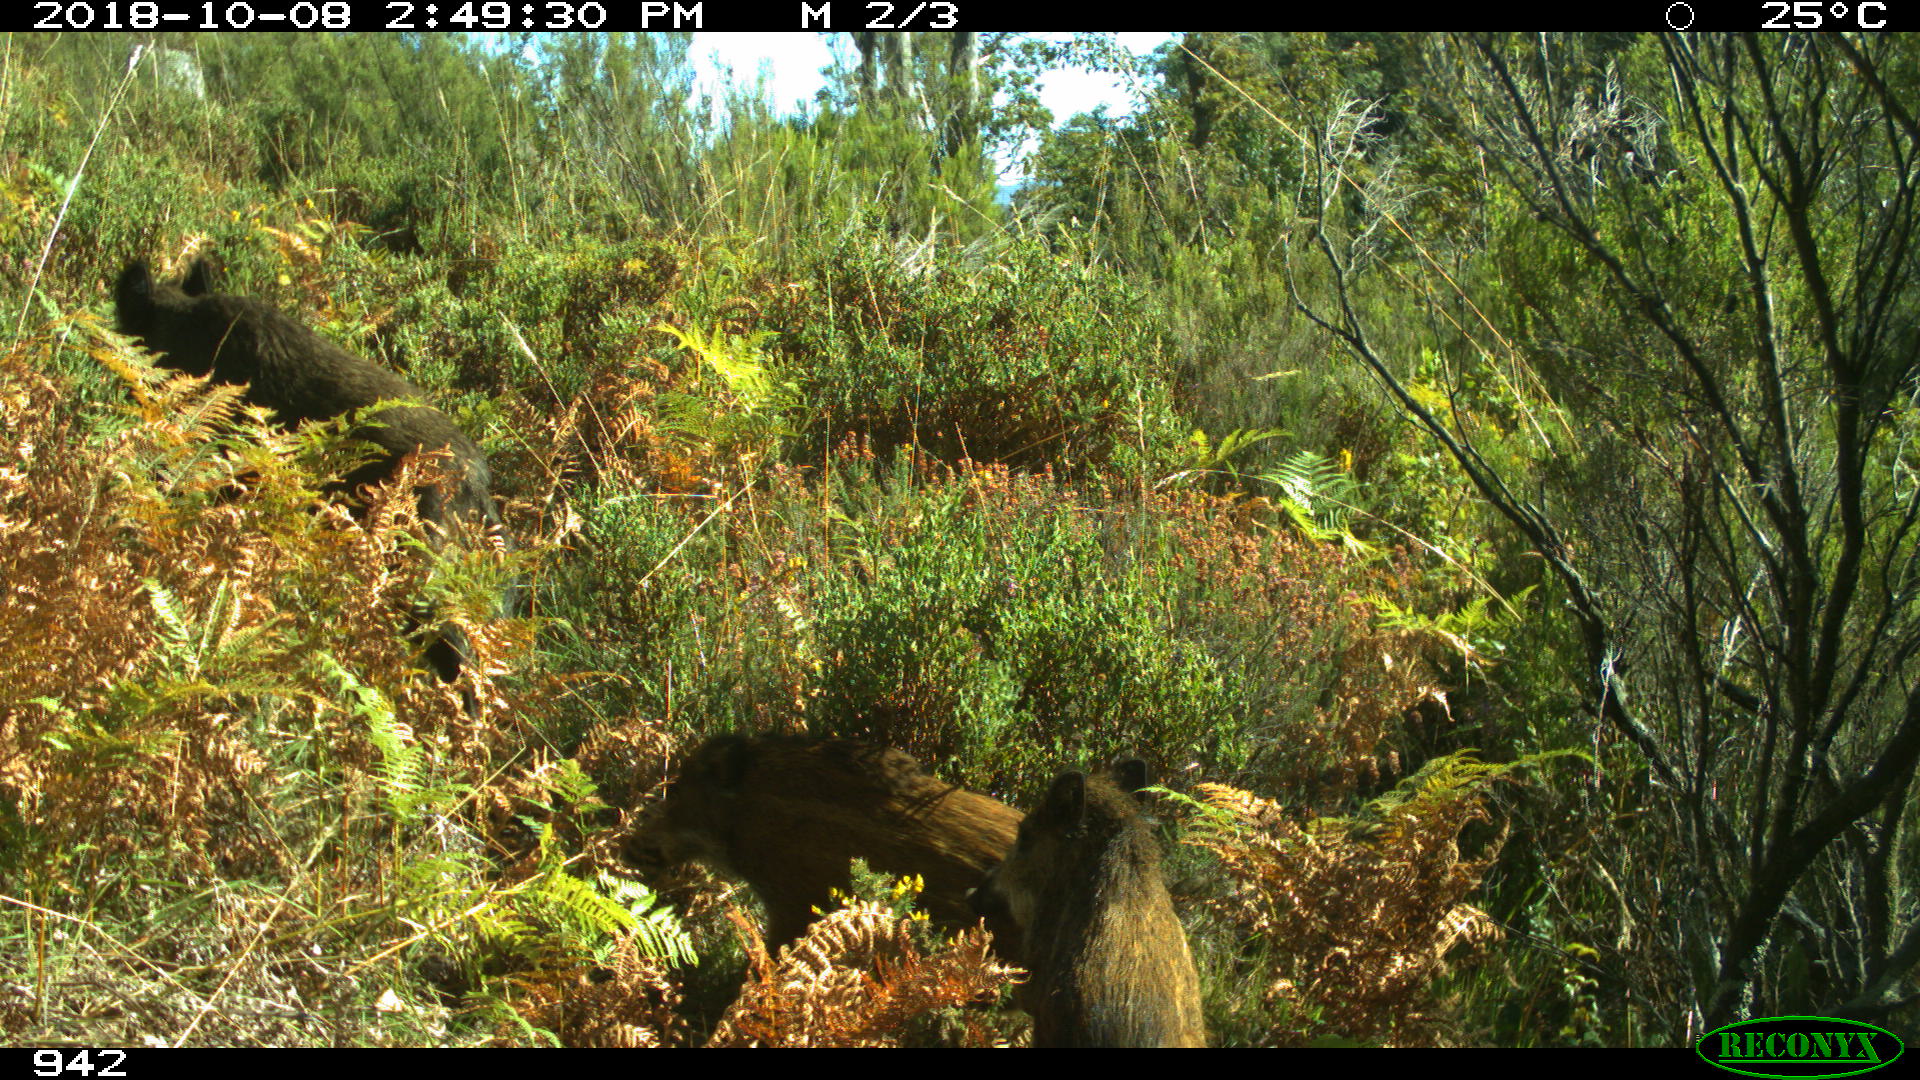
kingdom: Animalia
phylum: Chordata
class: Mammalia
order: Artiodactyla
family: Suidae
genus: Sus
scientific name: Sus scrofa
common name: Wild boar
